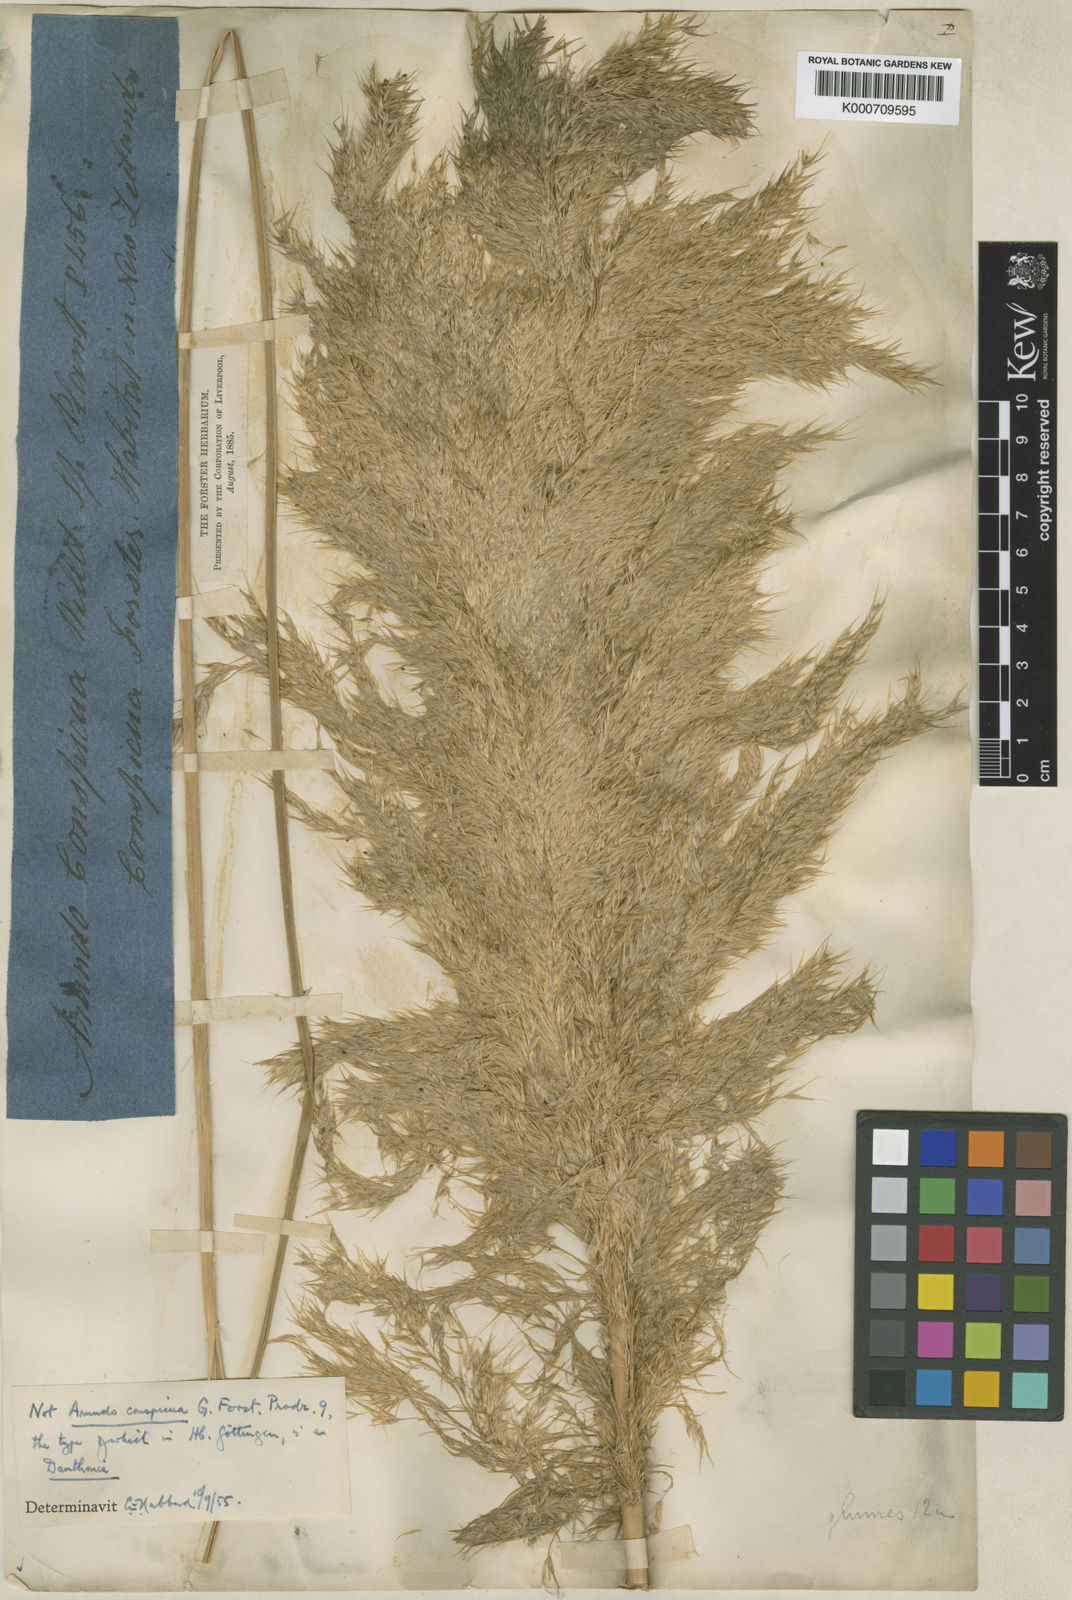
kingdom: Plantae
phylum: Tracheophyta
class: Liliopsida
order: Poales
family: Poaceae
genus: Austroderia
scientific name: Austroderia richardii
